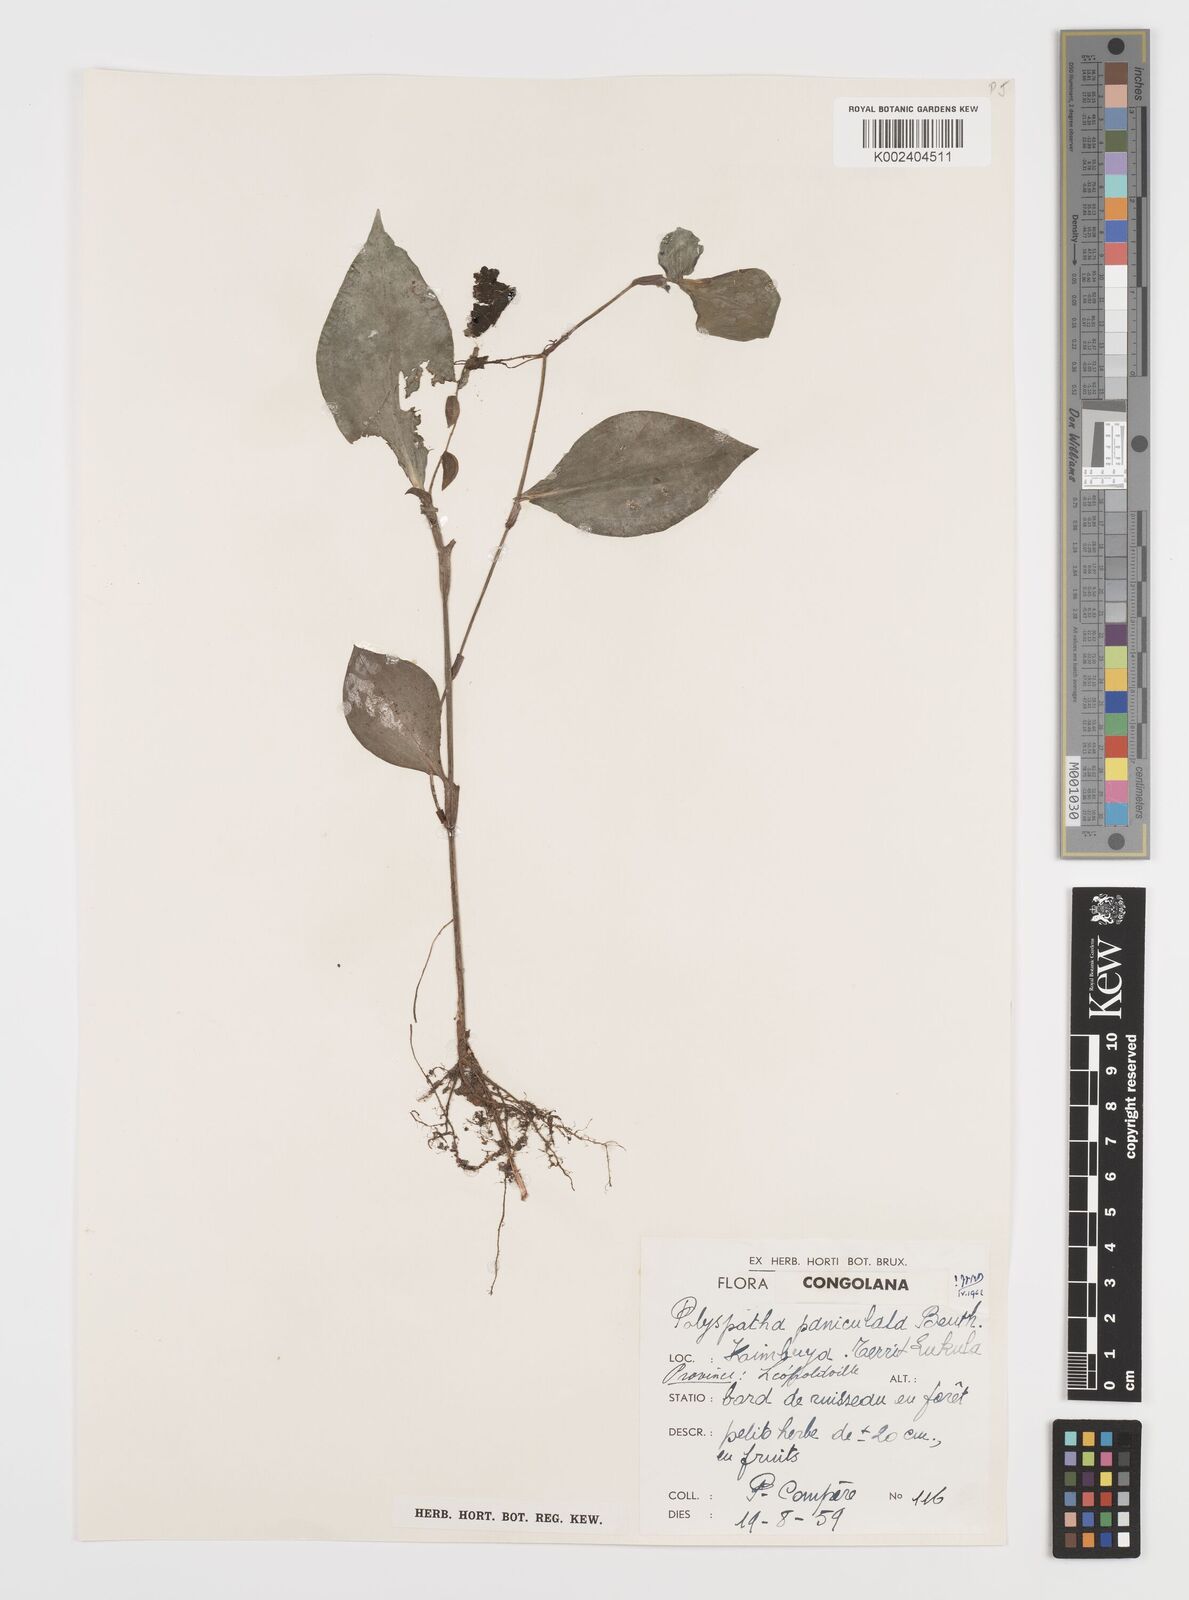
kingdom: Plantae
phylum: Tracheophyta
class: Liliopsida
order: Commelinales
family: Commelinaceae
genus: Polyspatha
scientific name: Polyspatha paniculata
